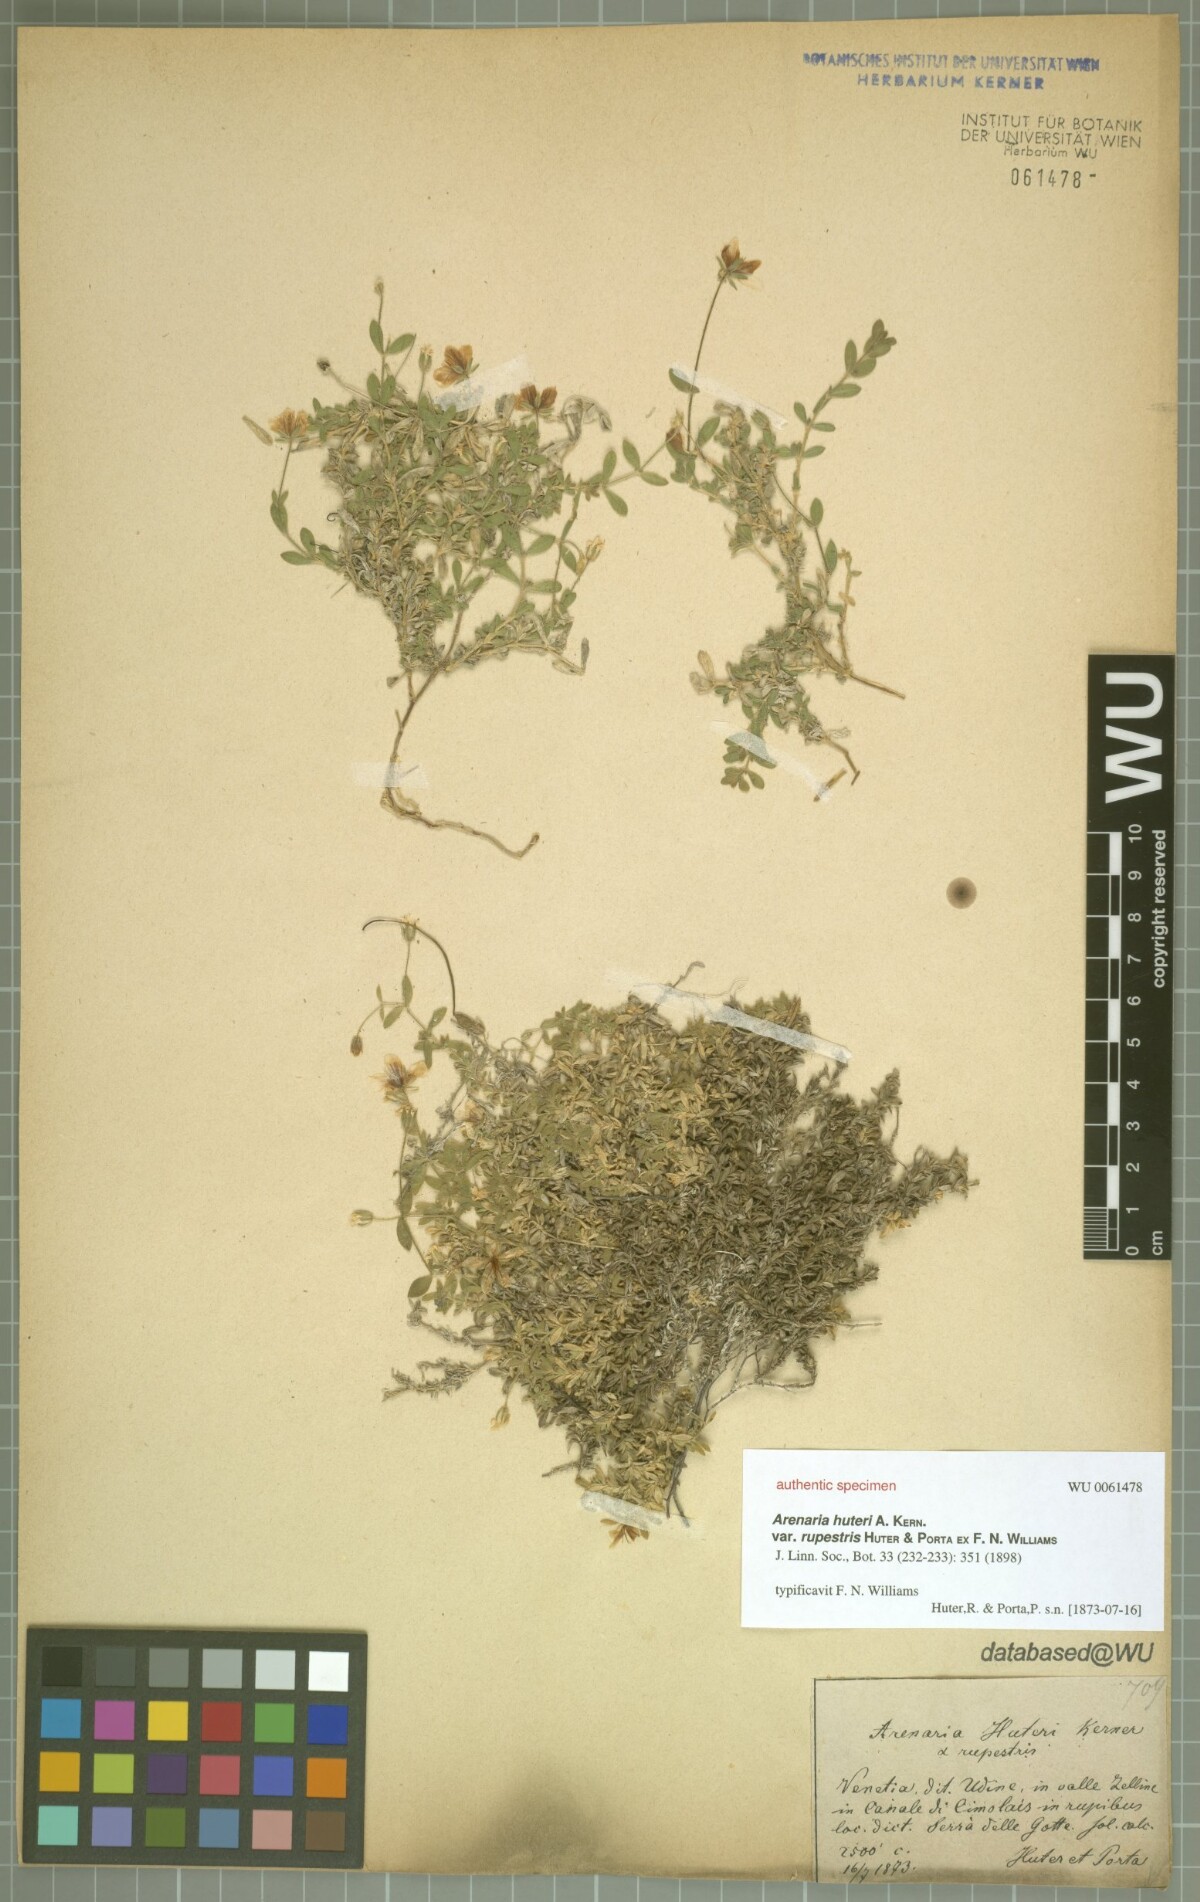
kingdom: Plantae
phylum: Tracheophyta
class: Magnoliopsida
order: Caryophyllales
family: Caryophyllaceae
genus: Arenaria
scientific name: Arenaria huteri
